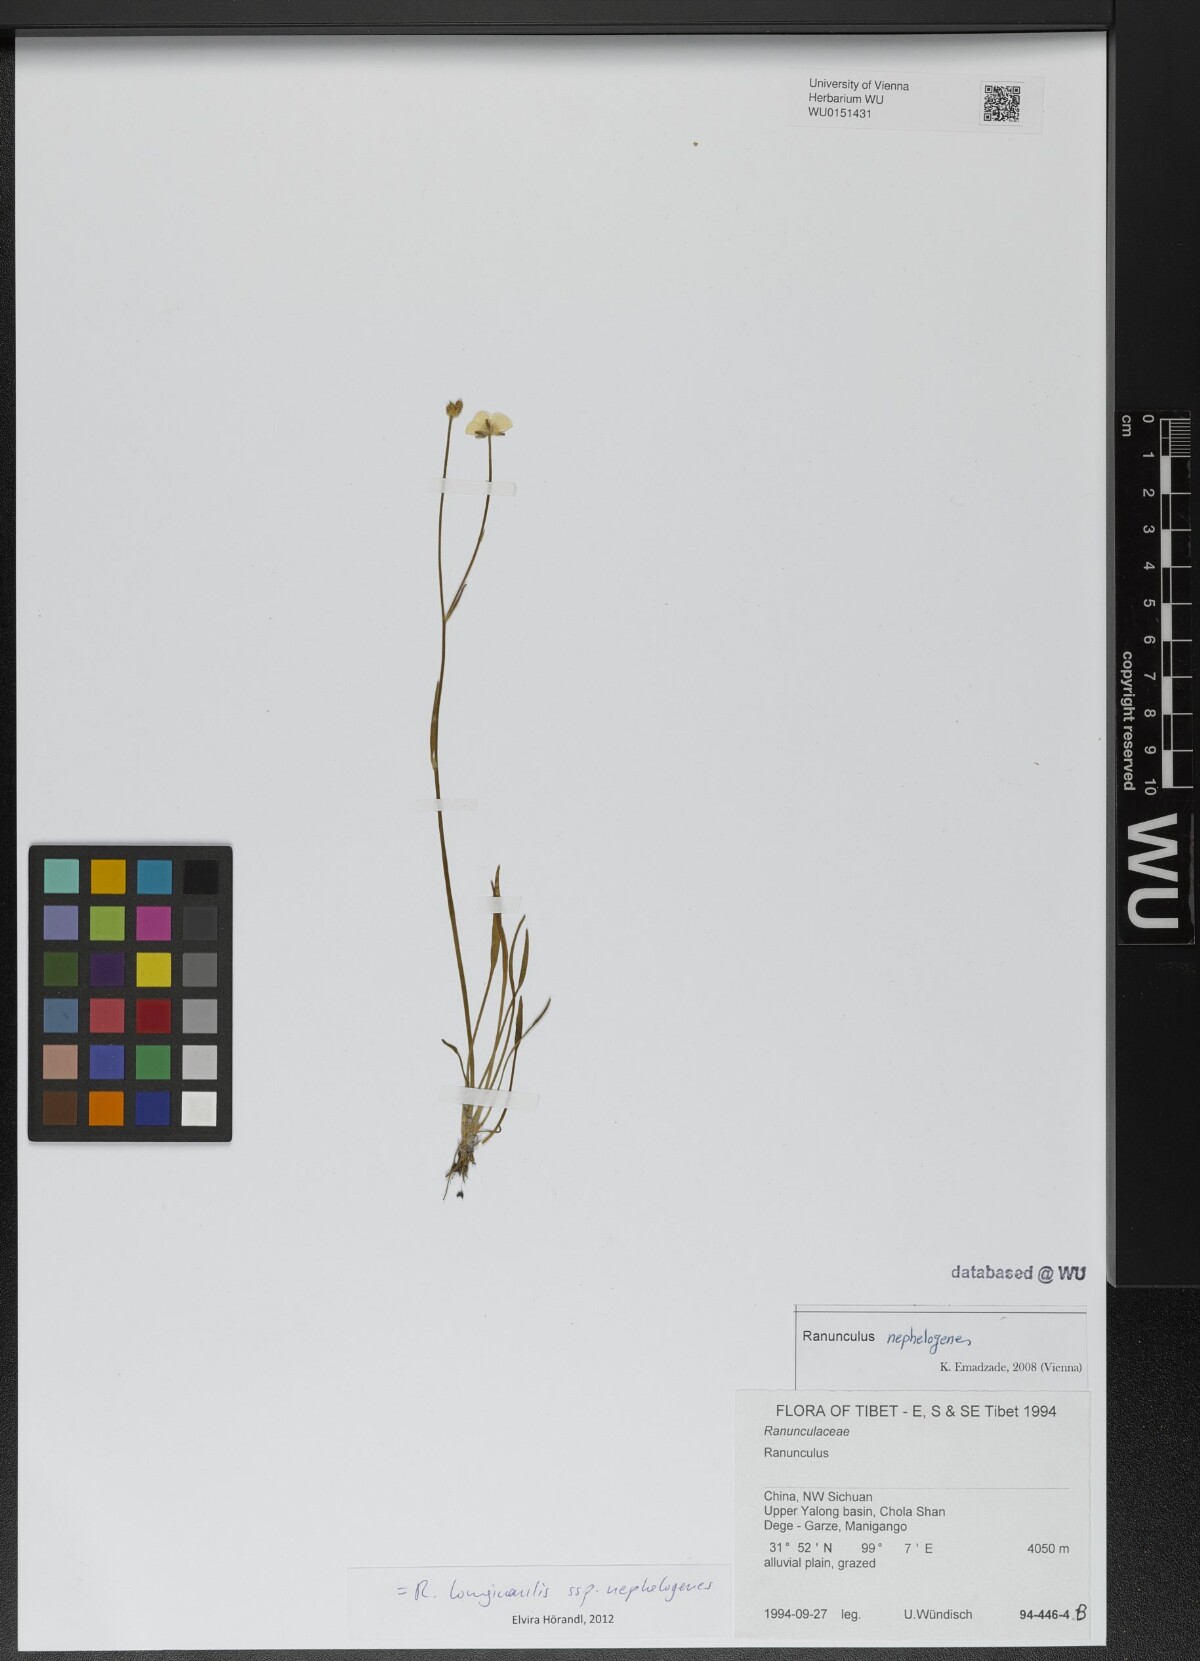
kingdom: Plantae
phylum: Tracheophyta
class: Magnoliopsida
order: Ranunculales
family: Ranunculaceae
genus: Ranunculus
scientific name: Ranunculus pulchellus
